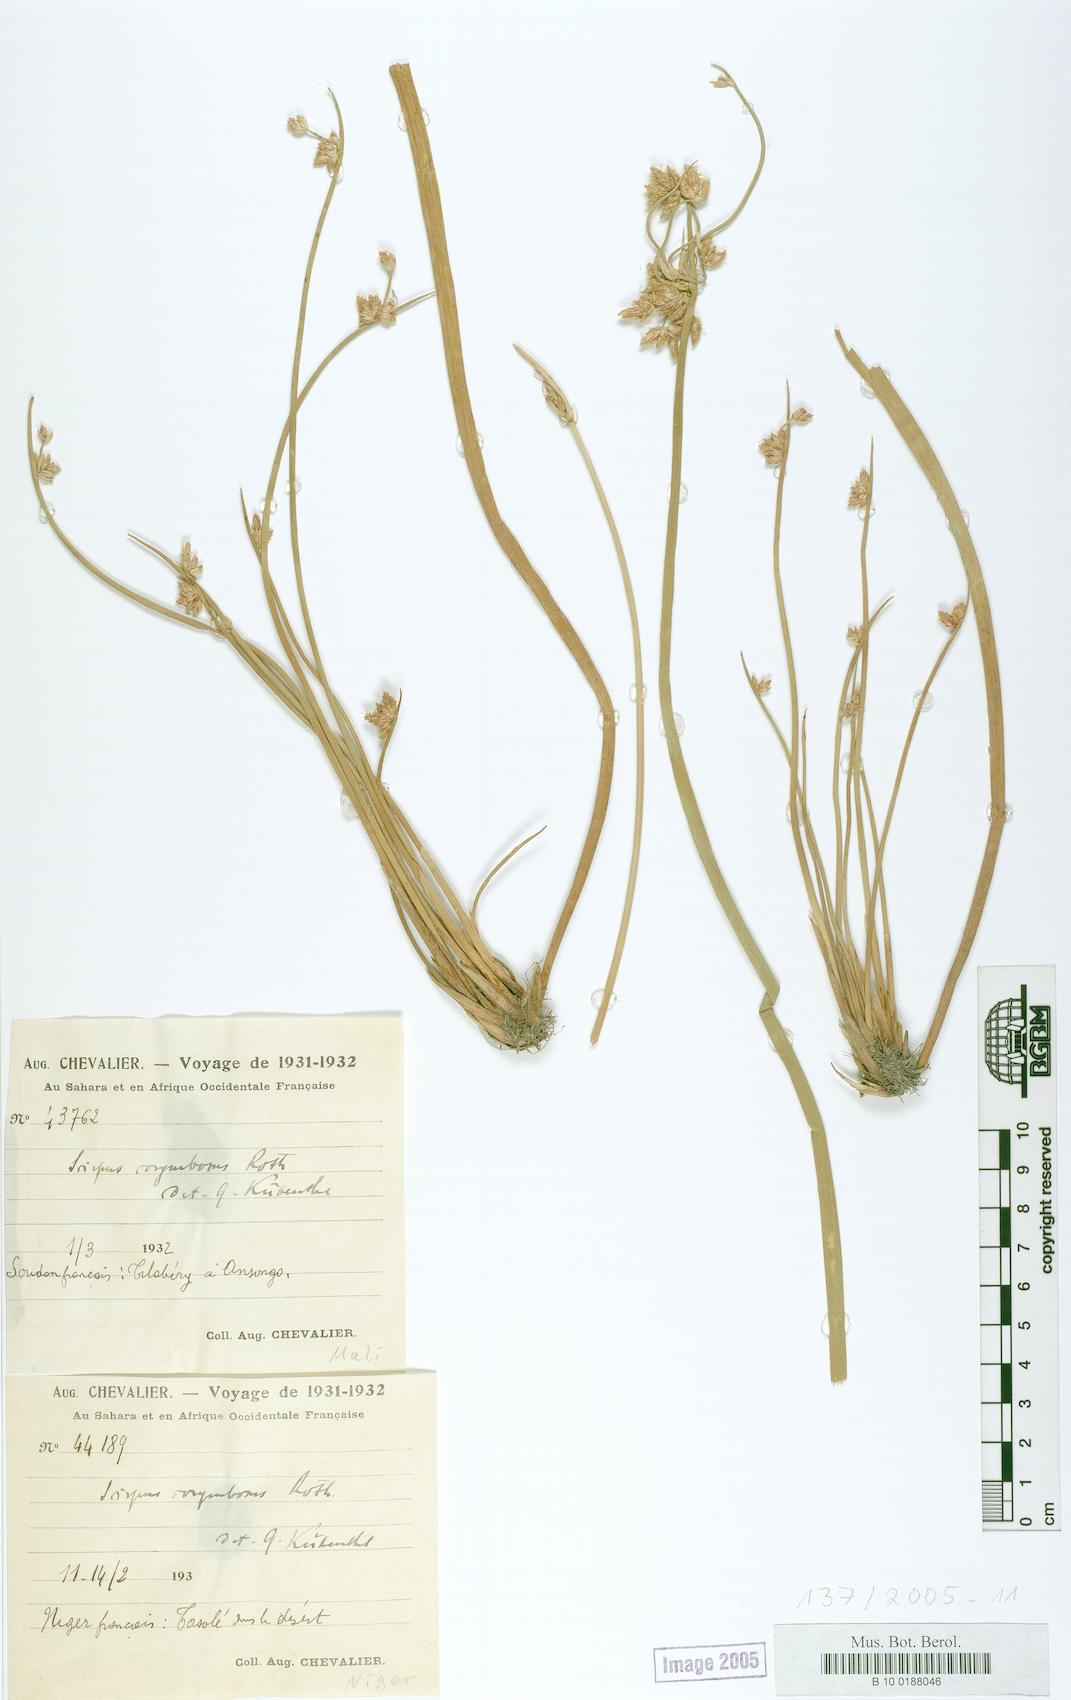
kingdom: Plantae
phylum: Tracheophyta
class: Liliopsida
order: Poales
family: Cyperaceae
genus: Scirpus
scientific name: Scirpus corymbosus
